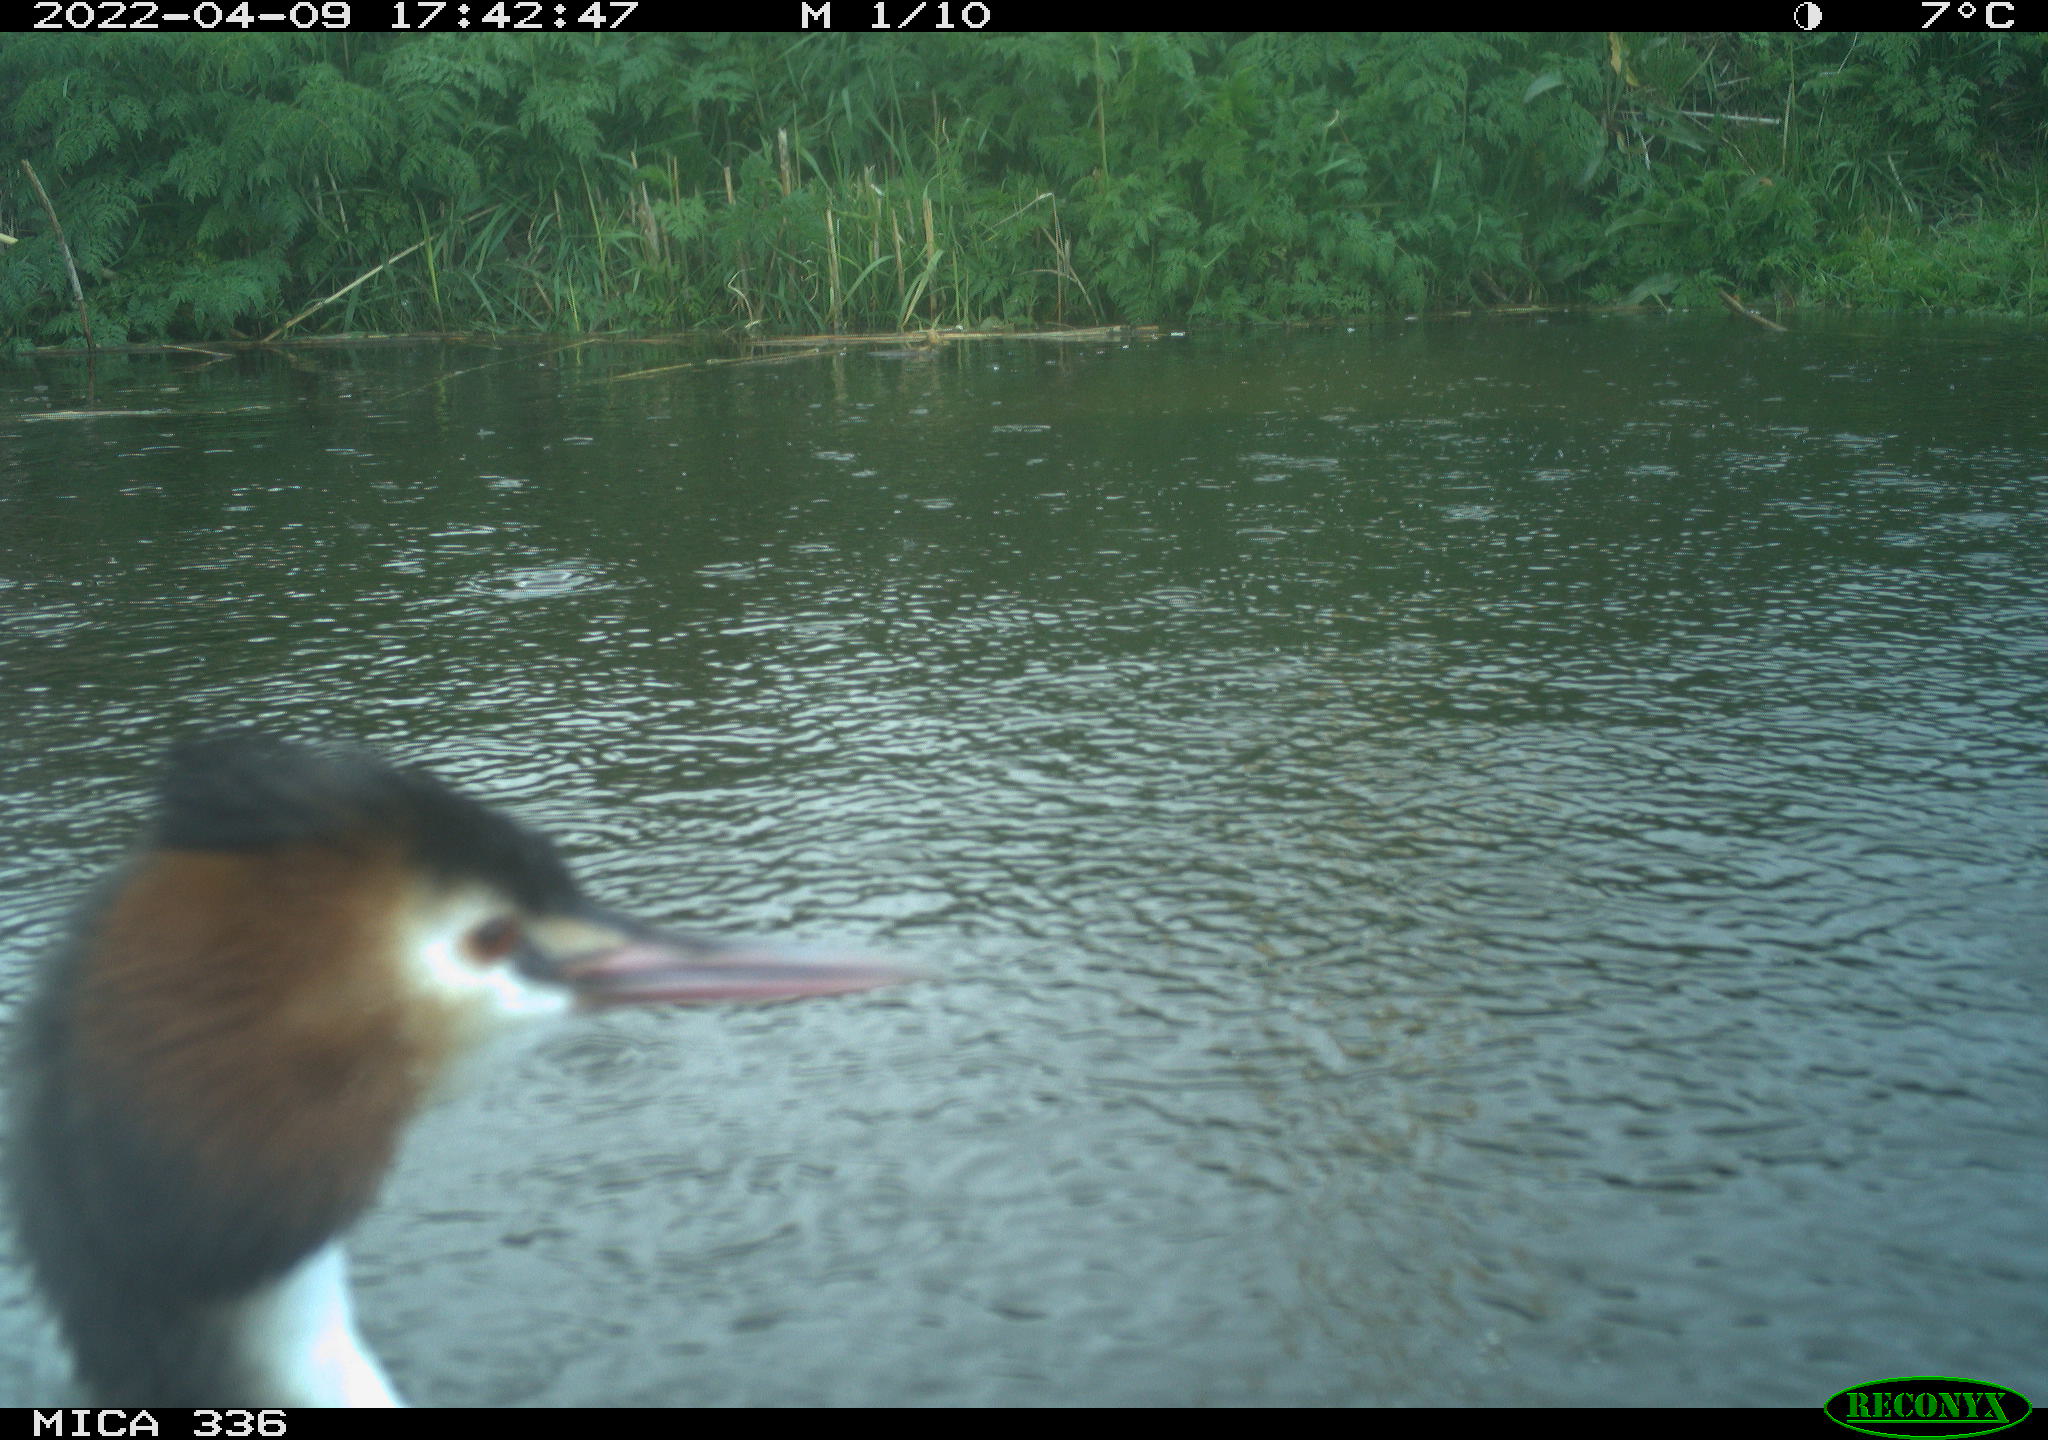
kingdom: Animalia
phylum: Chordata
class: Aves
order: Podicipediformes
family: Podicipedidae
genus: Podiceps
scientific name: Podiceps cristatus
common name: Great crested grebe
